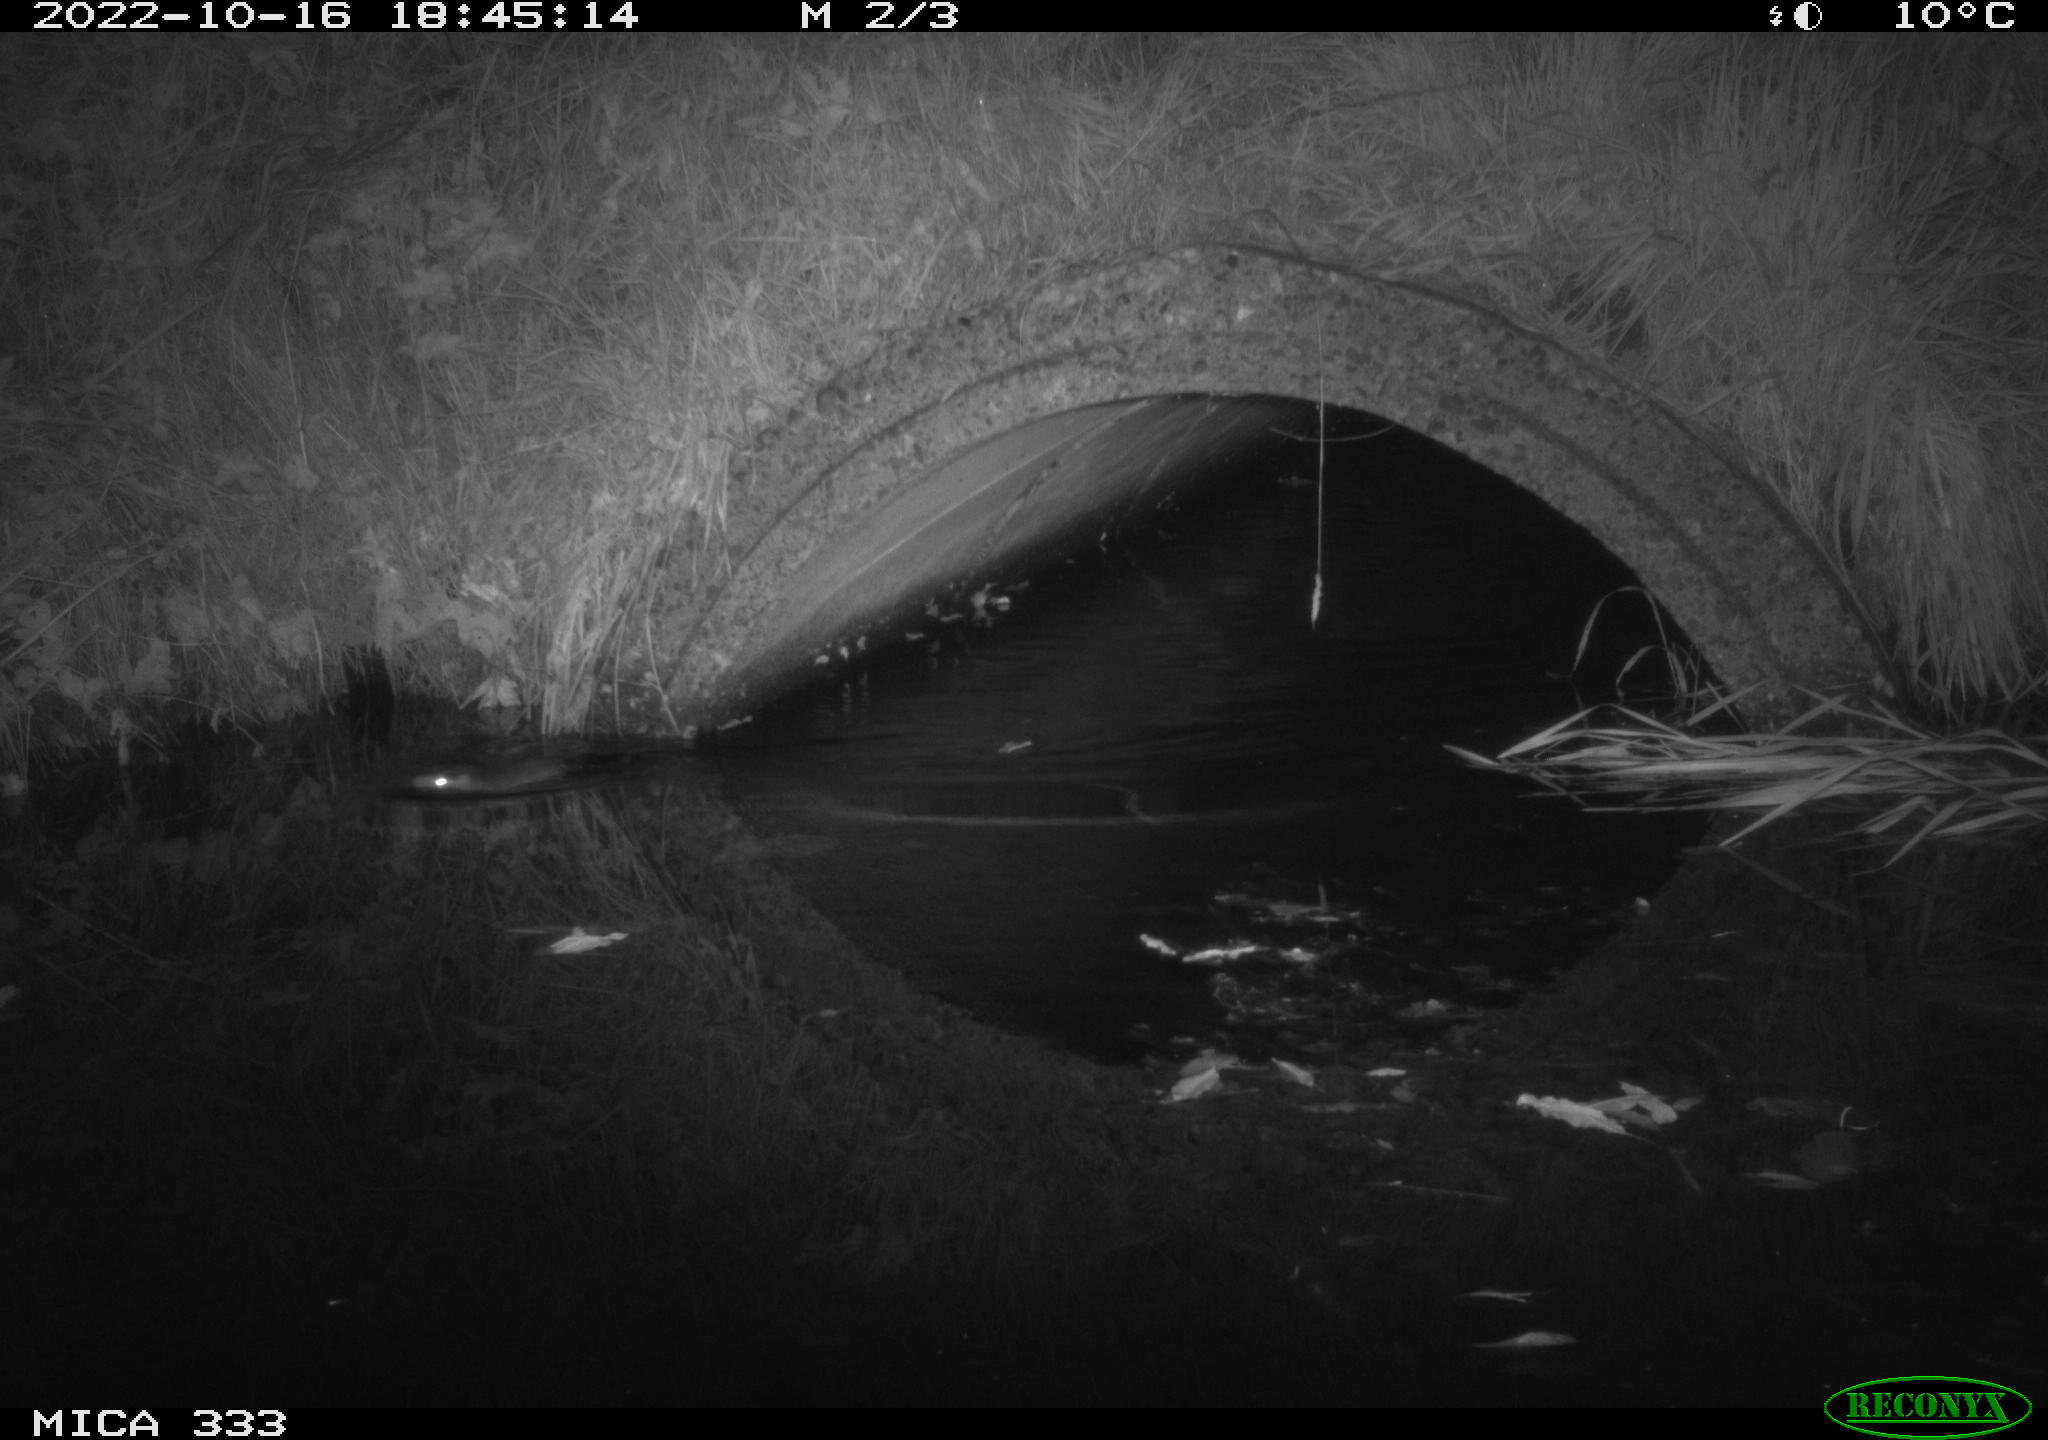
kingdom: Animalia
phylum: Chordata
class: Mammalia
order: Rodentia
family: Muridae
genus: Rattus
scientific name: Rattus norvegicus
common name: Brown rat
